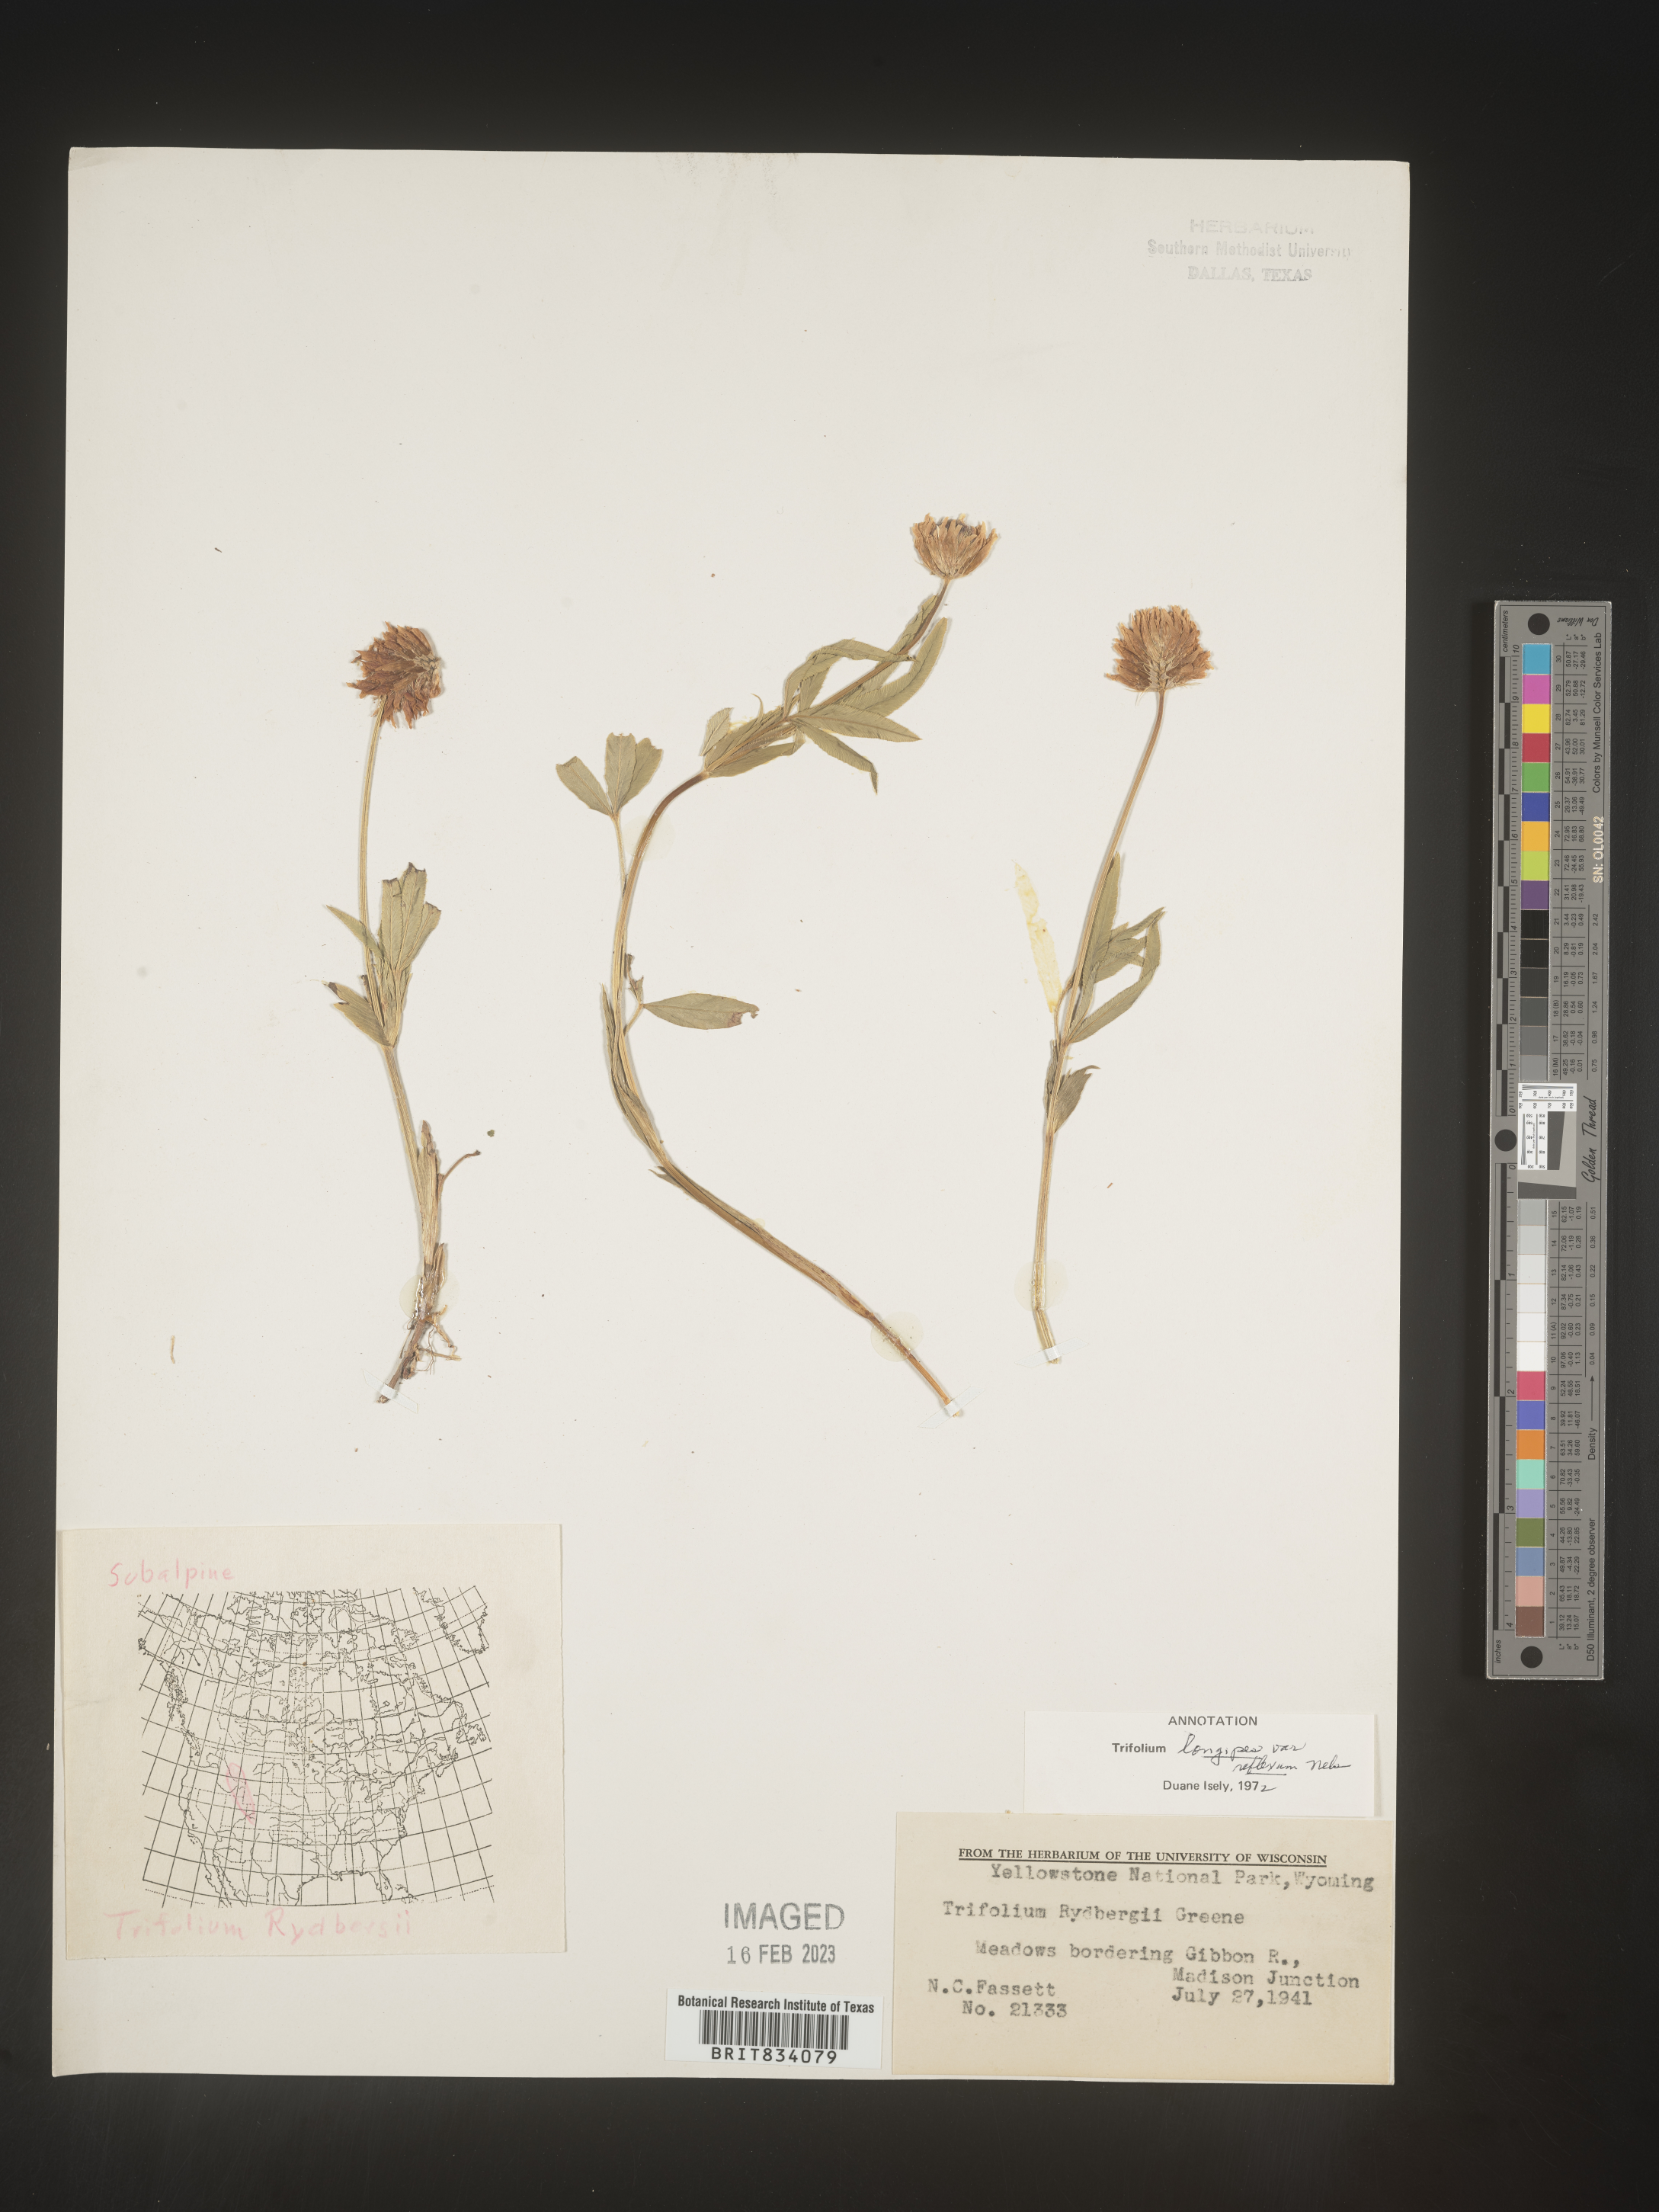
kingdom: Plantae
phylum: Tracheophyta
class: Magnoliopsida
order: Fabales
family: Fabaceae
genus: Trifolium
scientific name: Trifolium
